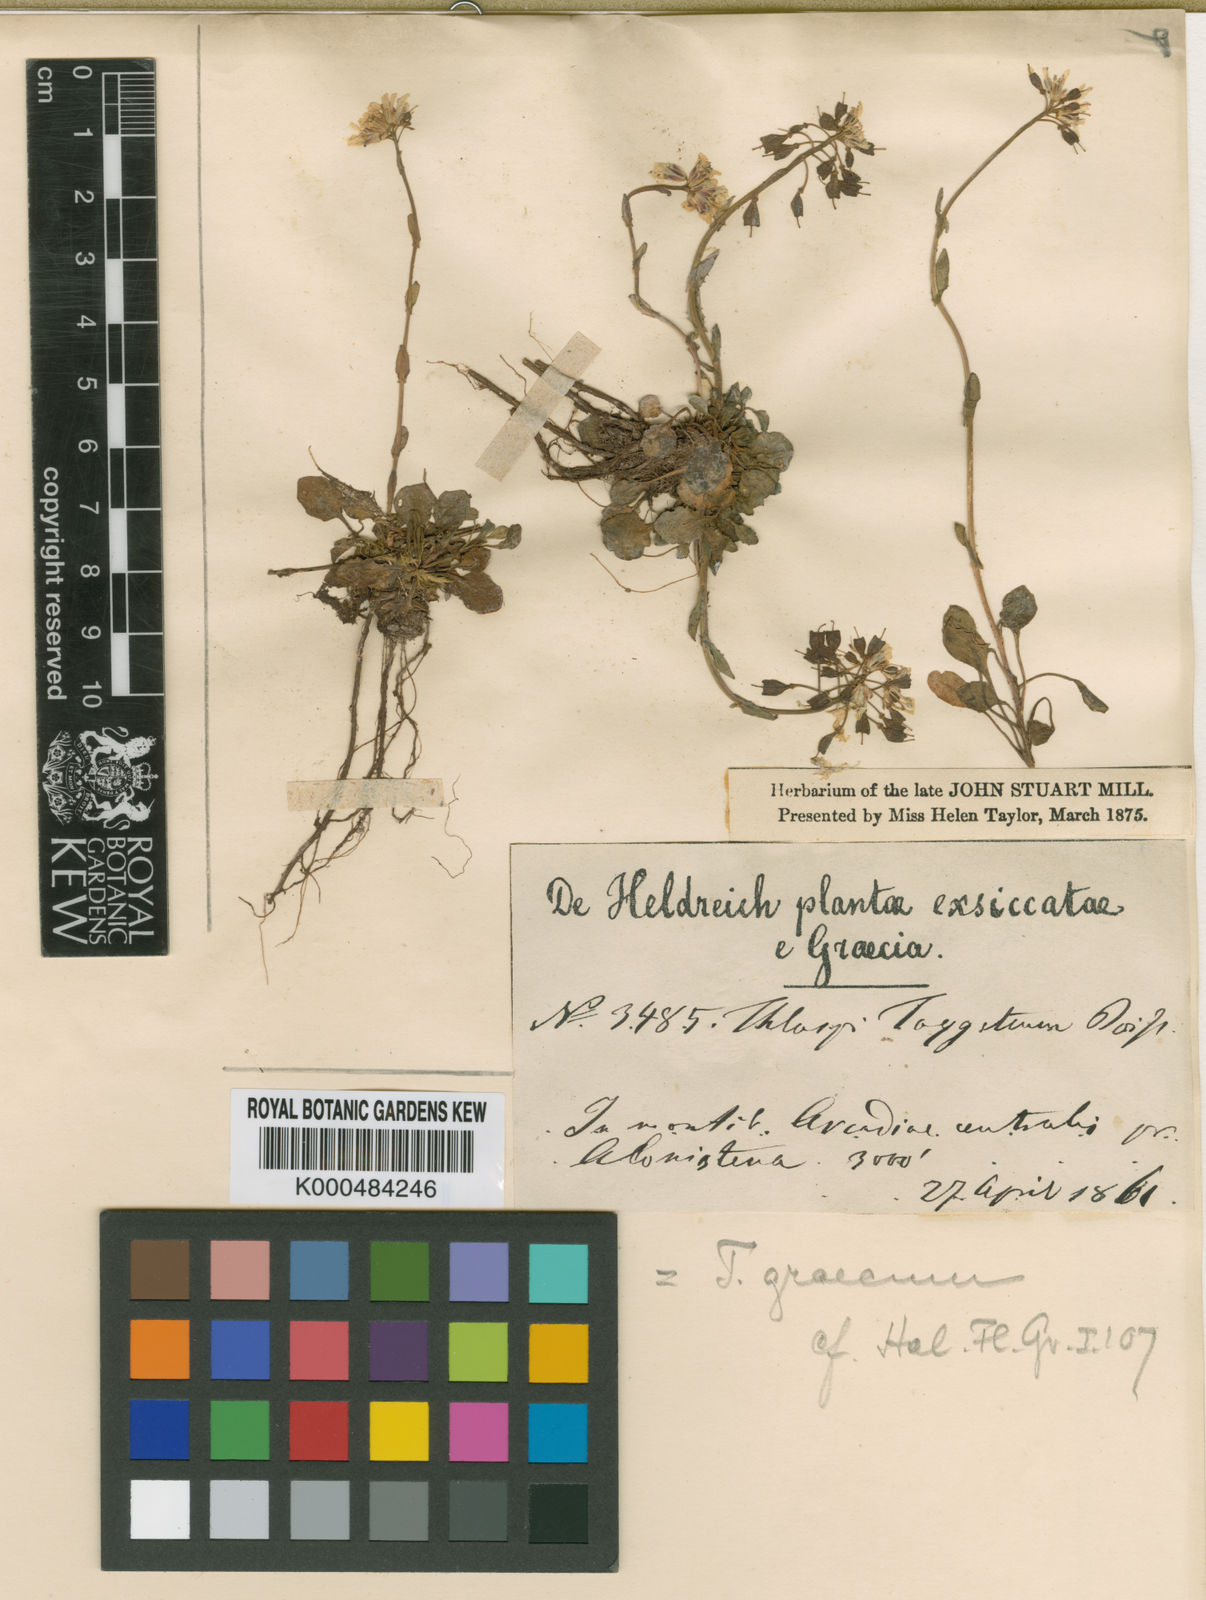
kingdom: Plantae
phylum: Tracheophyta
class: Magnoliopsida
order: Brassicales
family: Brassicaceae
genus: Noccaea
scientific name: Noccaea graeca
